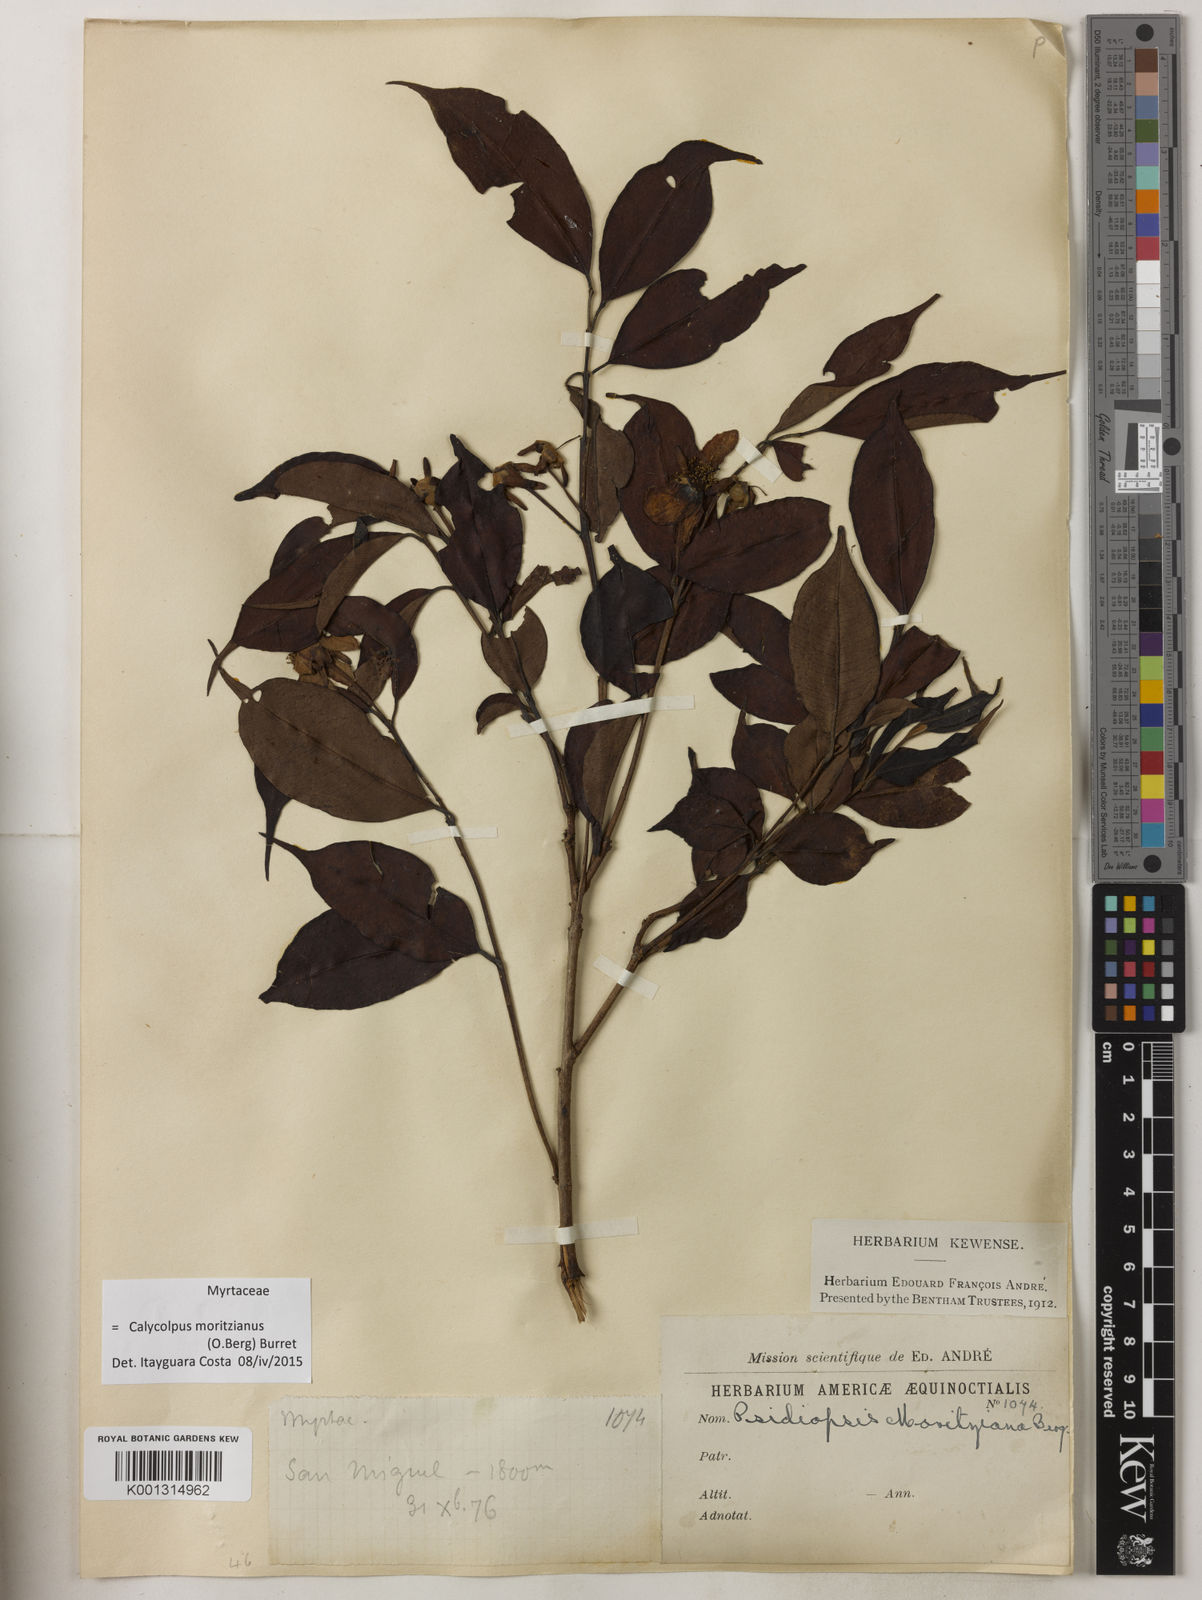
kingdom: Plantae
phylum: Tracheophyta
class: Magnoliopsida
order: Myrtales
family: Myrtaceae
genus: Calycolpus
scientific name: Calycolpus moritzianus
